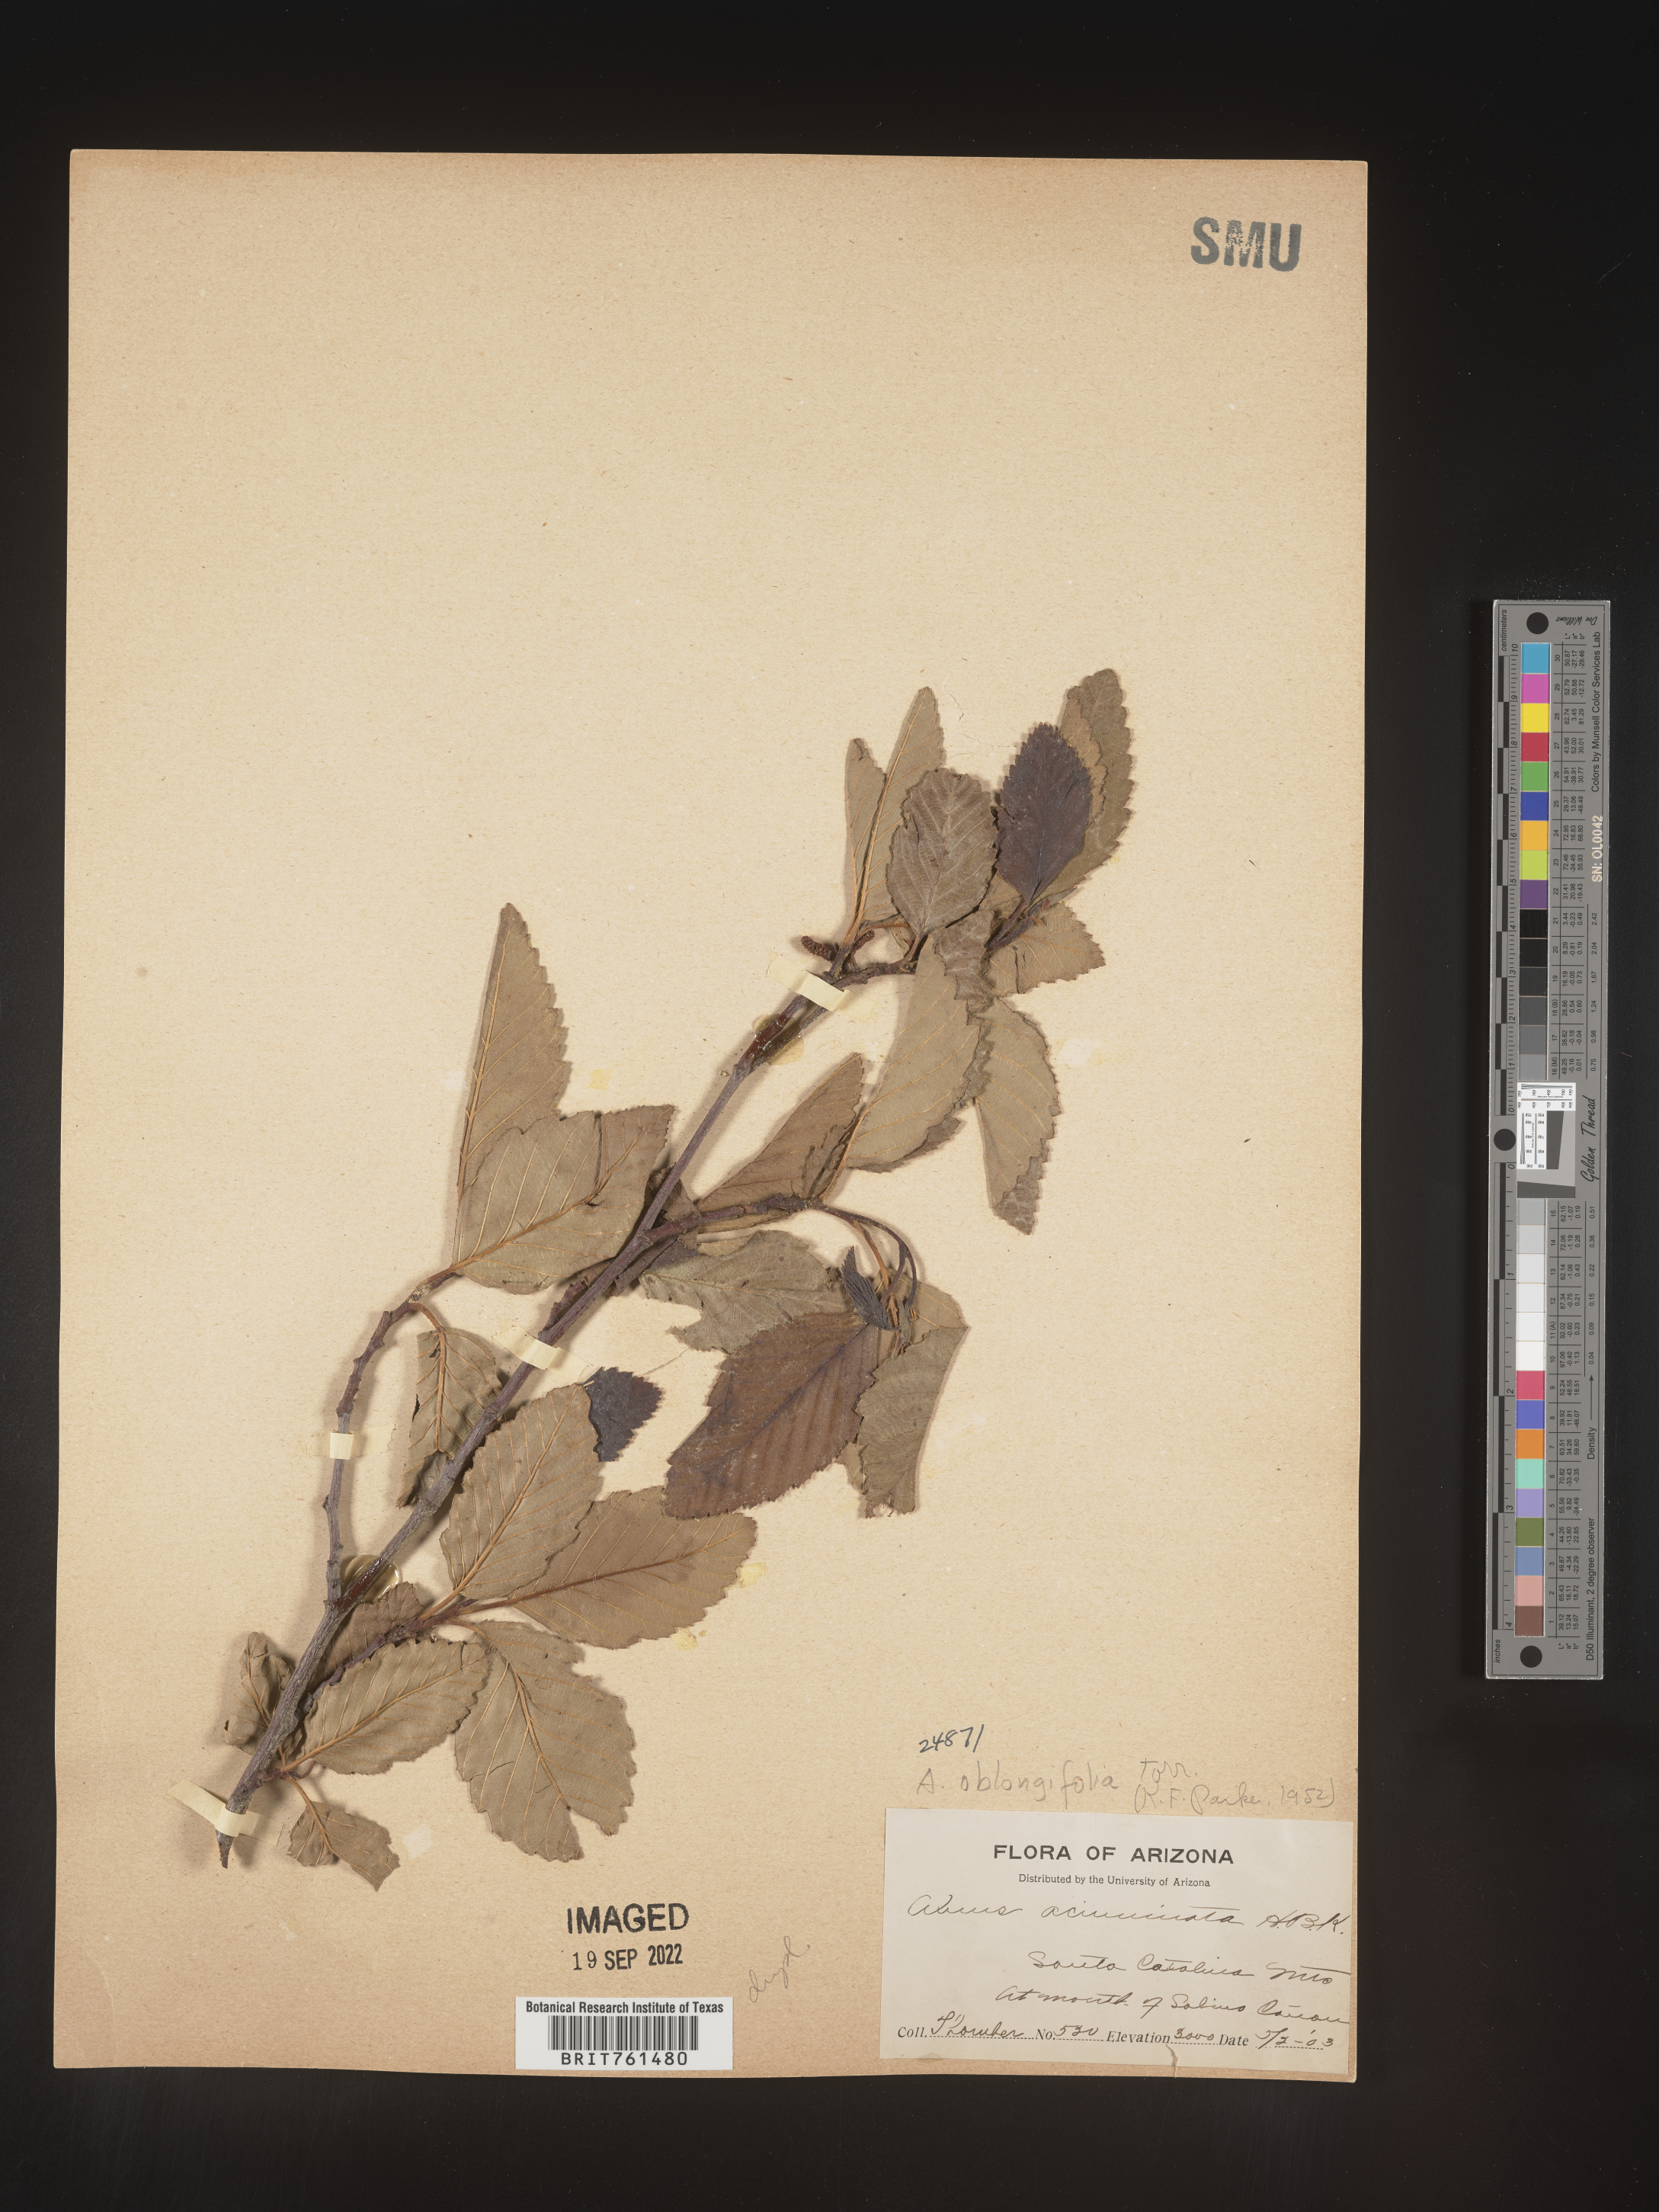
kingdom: Plantae
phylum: Tracheophyta
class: Magnoliopsida
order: Fagales
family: Betulaceae
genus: Alnus
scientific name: Alnus
